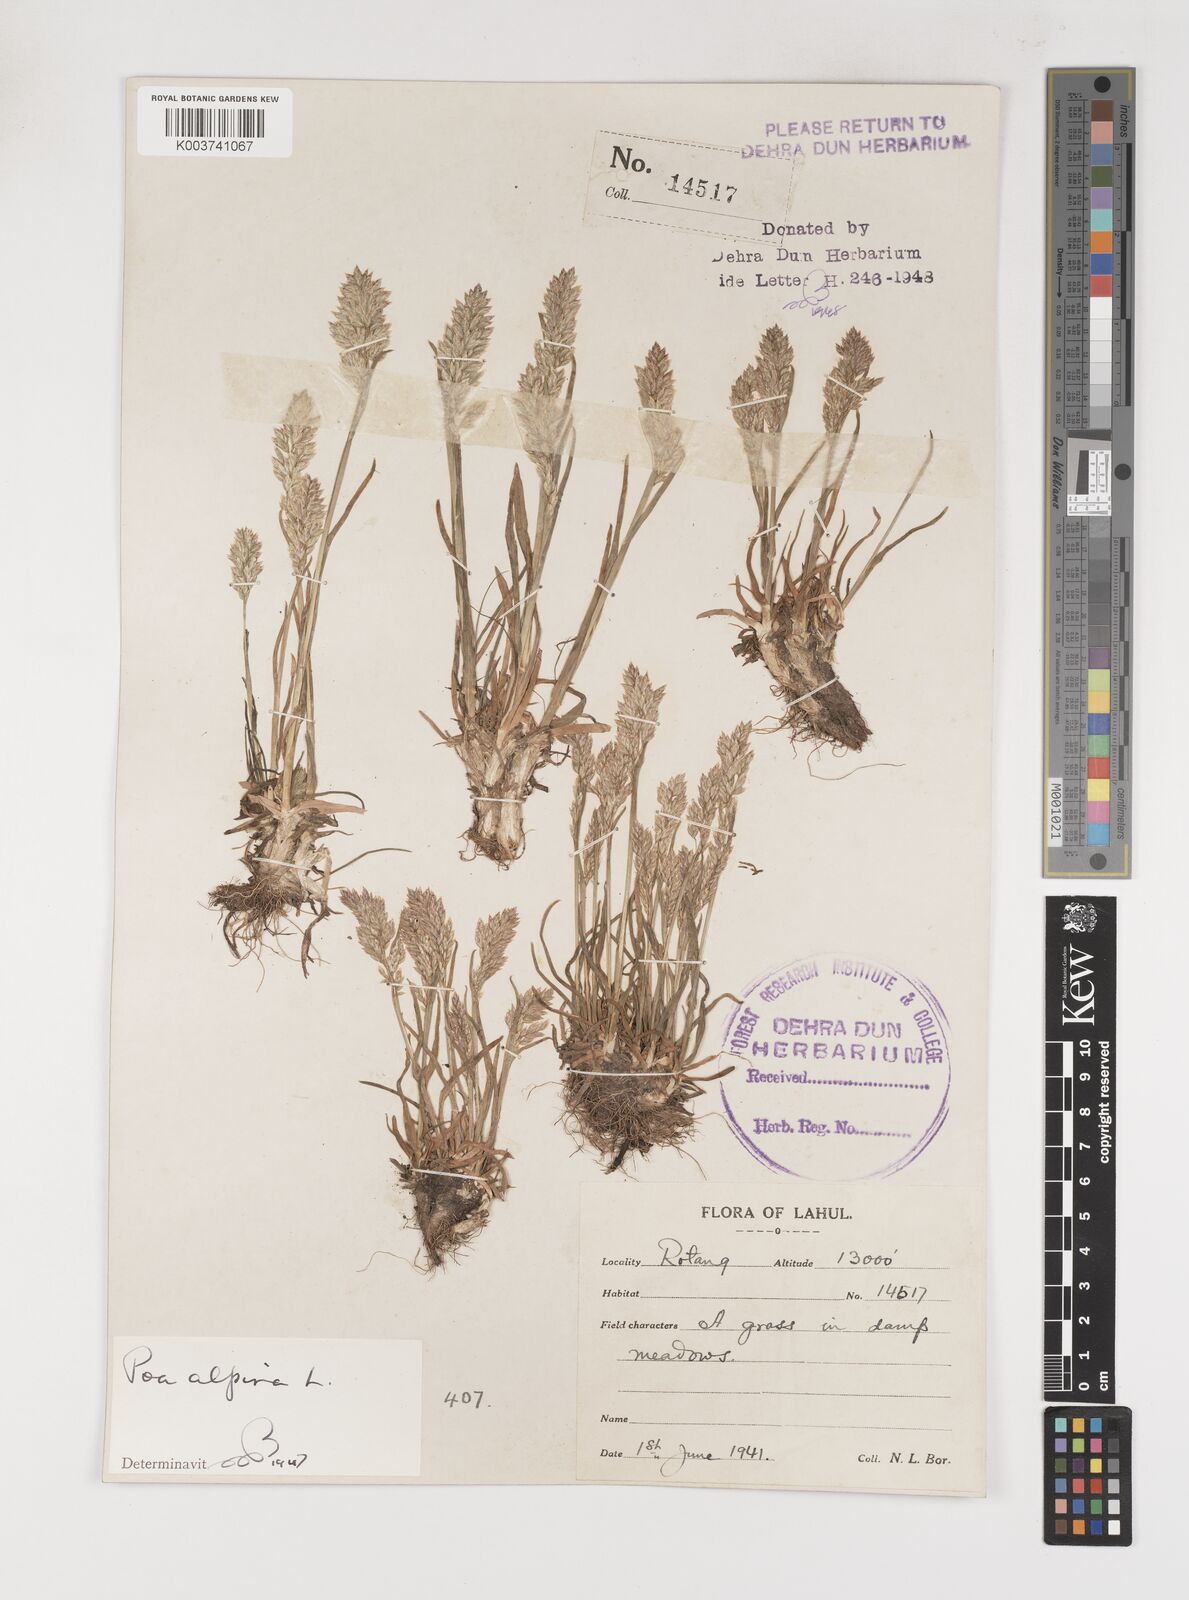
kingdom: Plantae
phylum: Tracheophyta
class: Liliopsida
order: Poales
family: Poaceae
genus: Poa
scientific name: Poa alpina
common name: Alpine bluegrass
